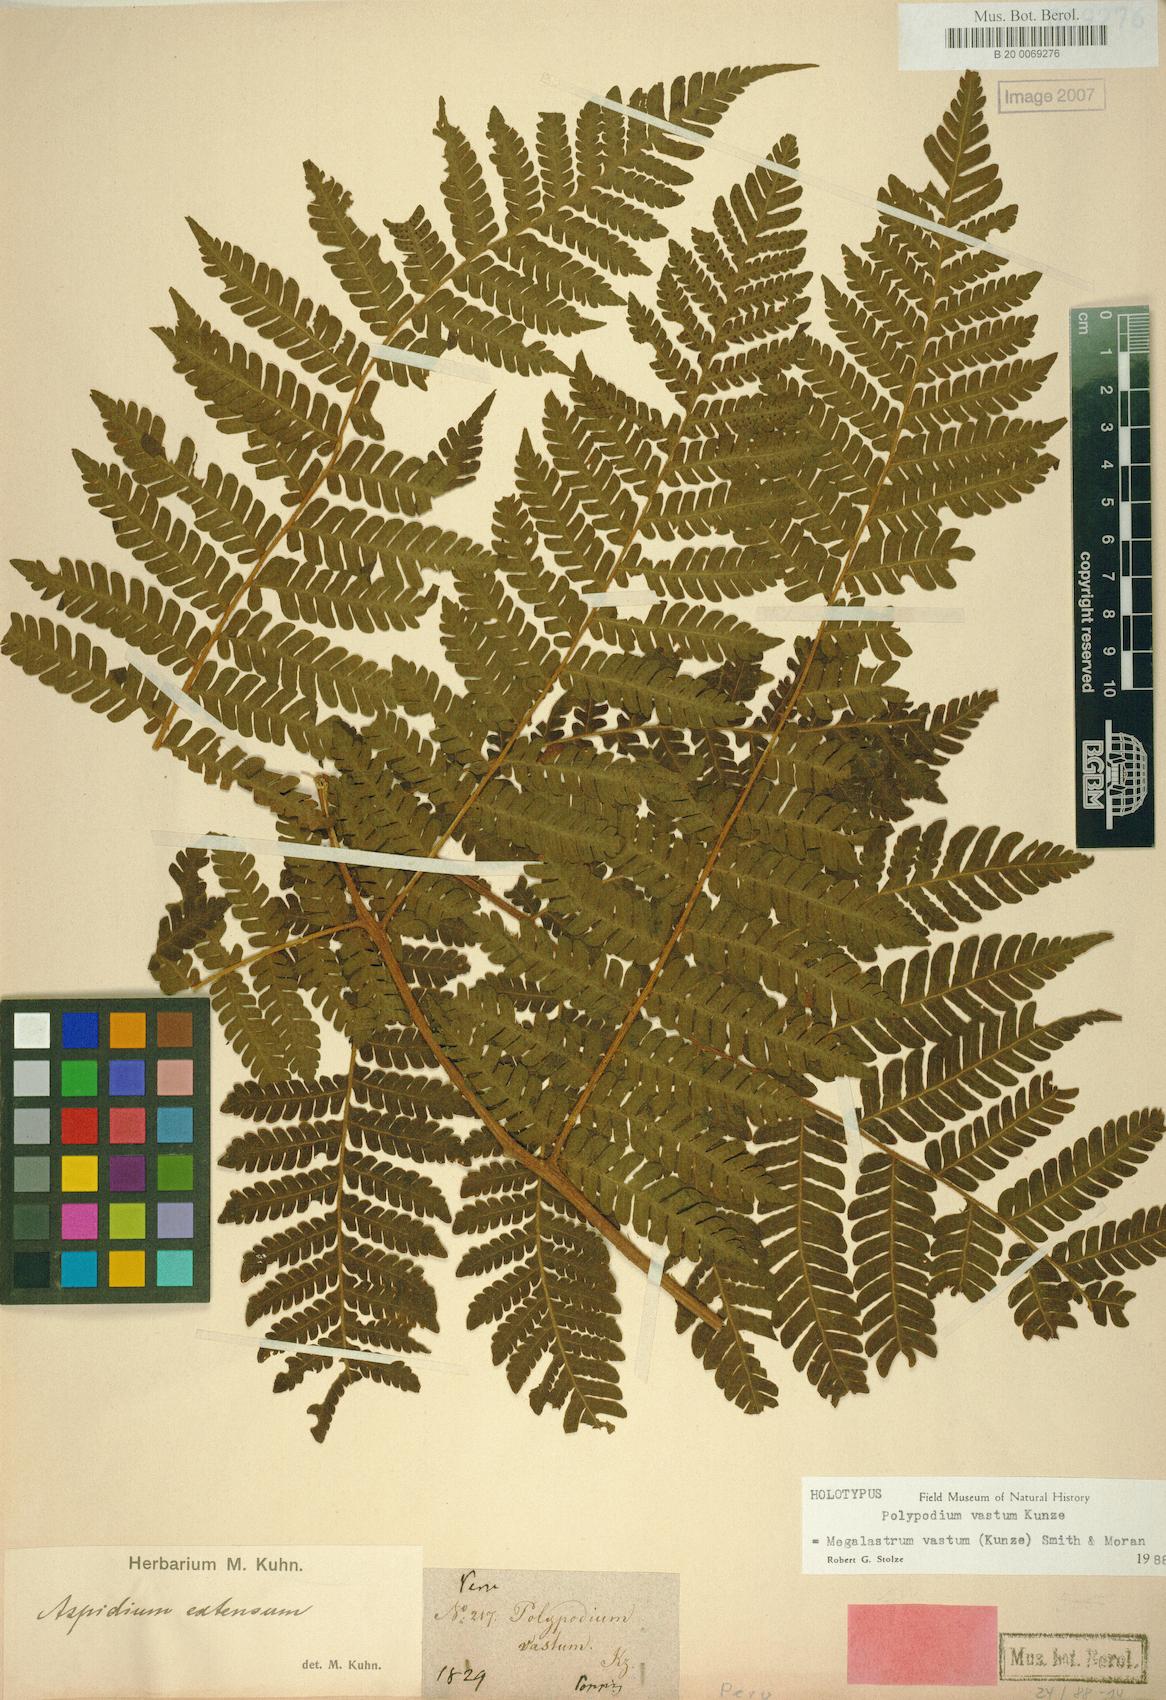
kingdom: Plantae
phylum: Tracheophyta
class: Polypodiopsida
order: Polypodiales
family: Dryopteridaceae
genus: Megalastrum
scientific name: Megalastrum vastum
